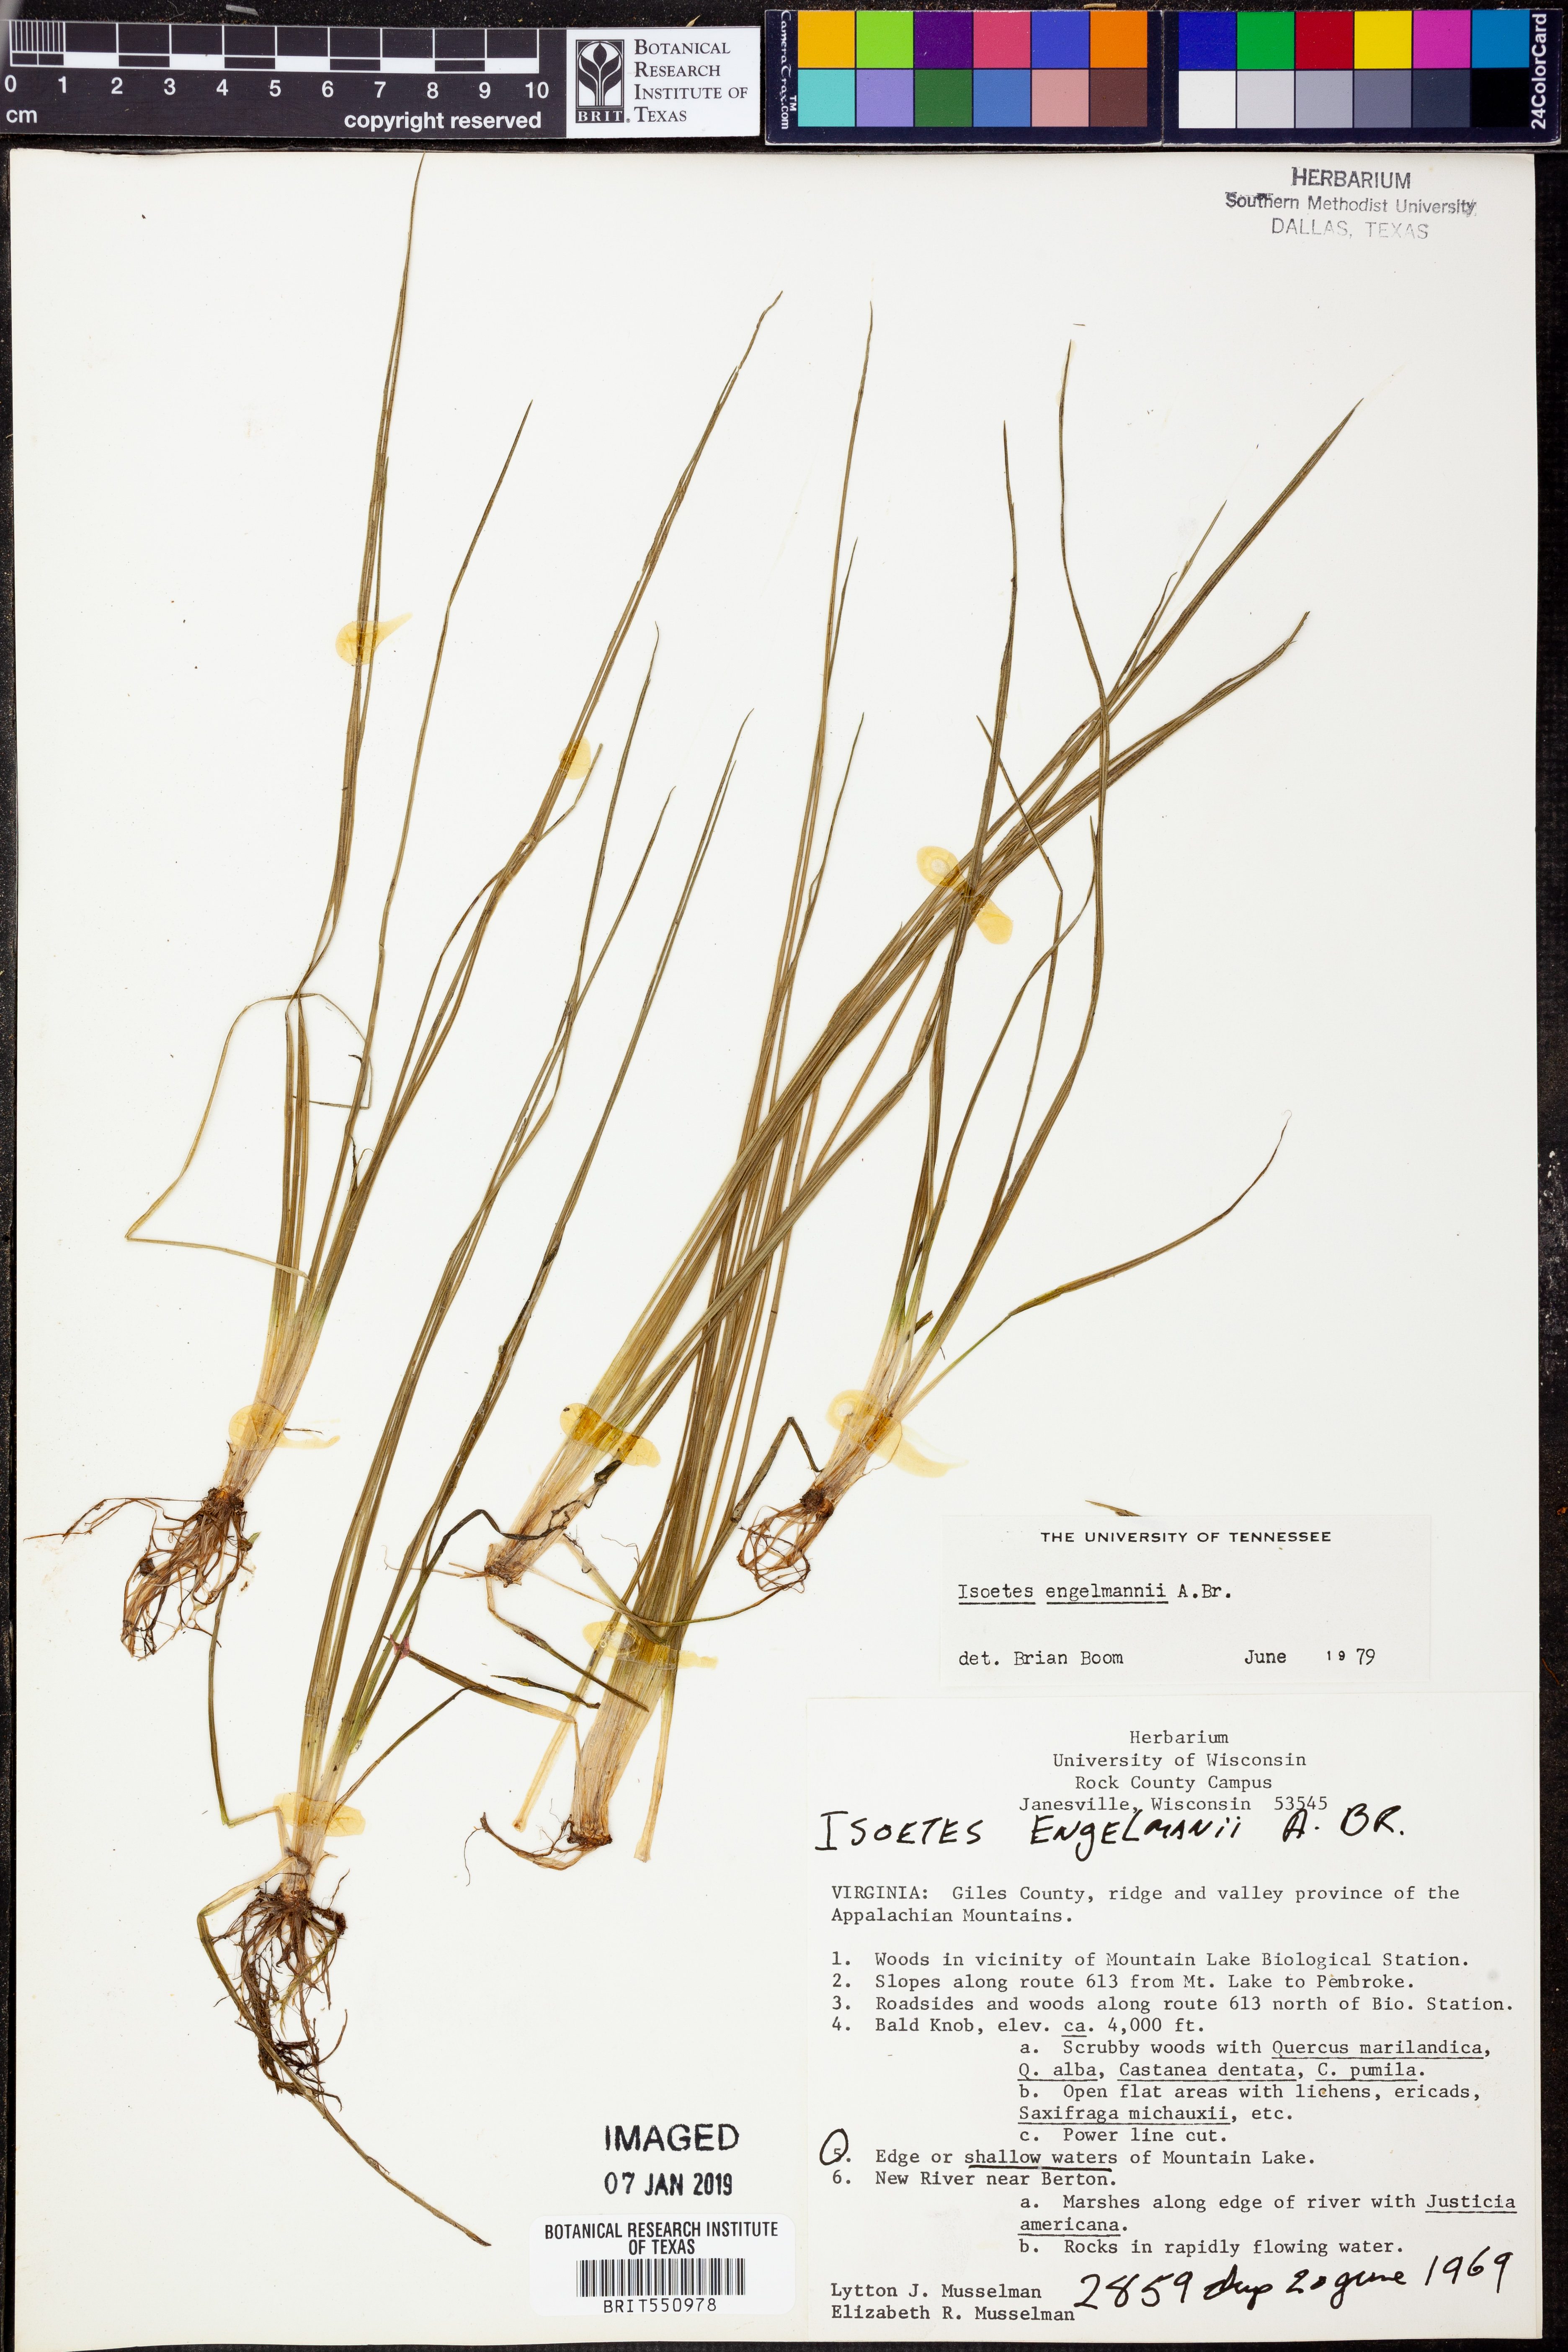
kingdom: Plantae
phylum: Tracheophyta
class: Lycopodiopsida
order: Isoetales
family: Isoetaceae
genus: Isoetes
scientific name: Isoetes engelmannii
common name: Engelmann's quillwort
